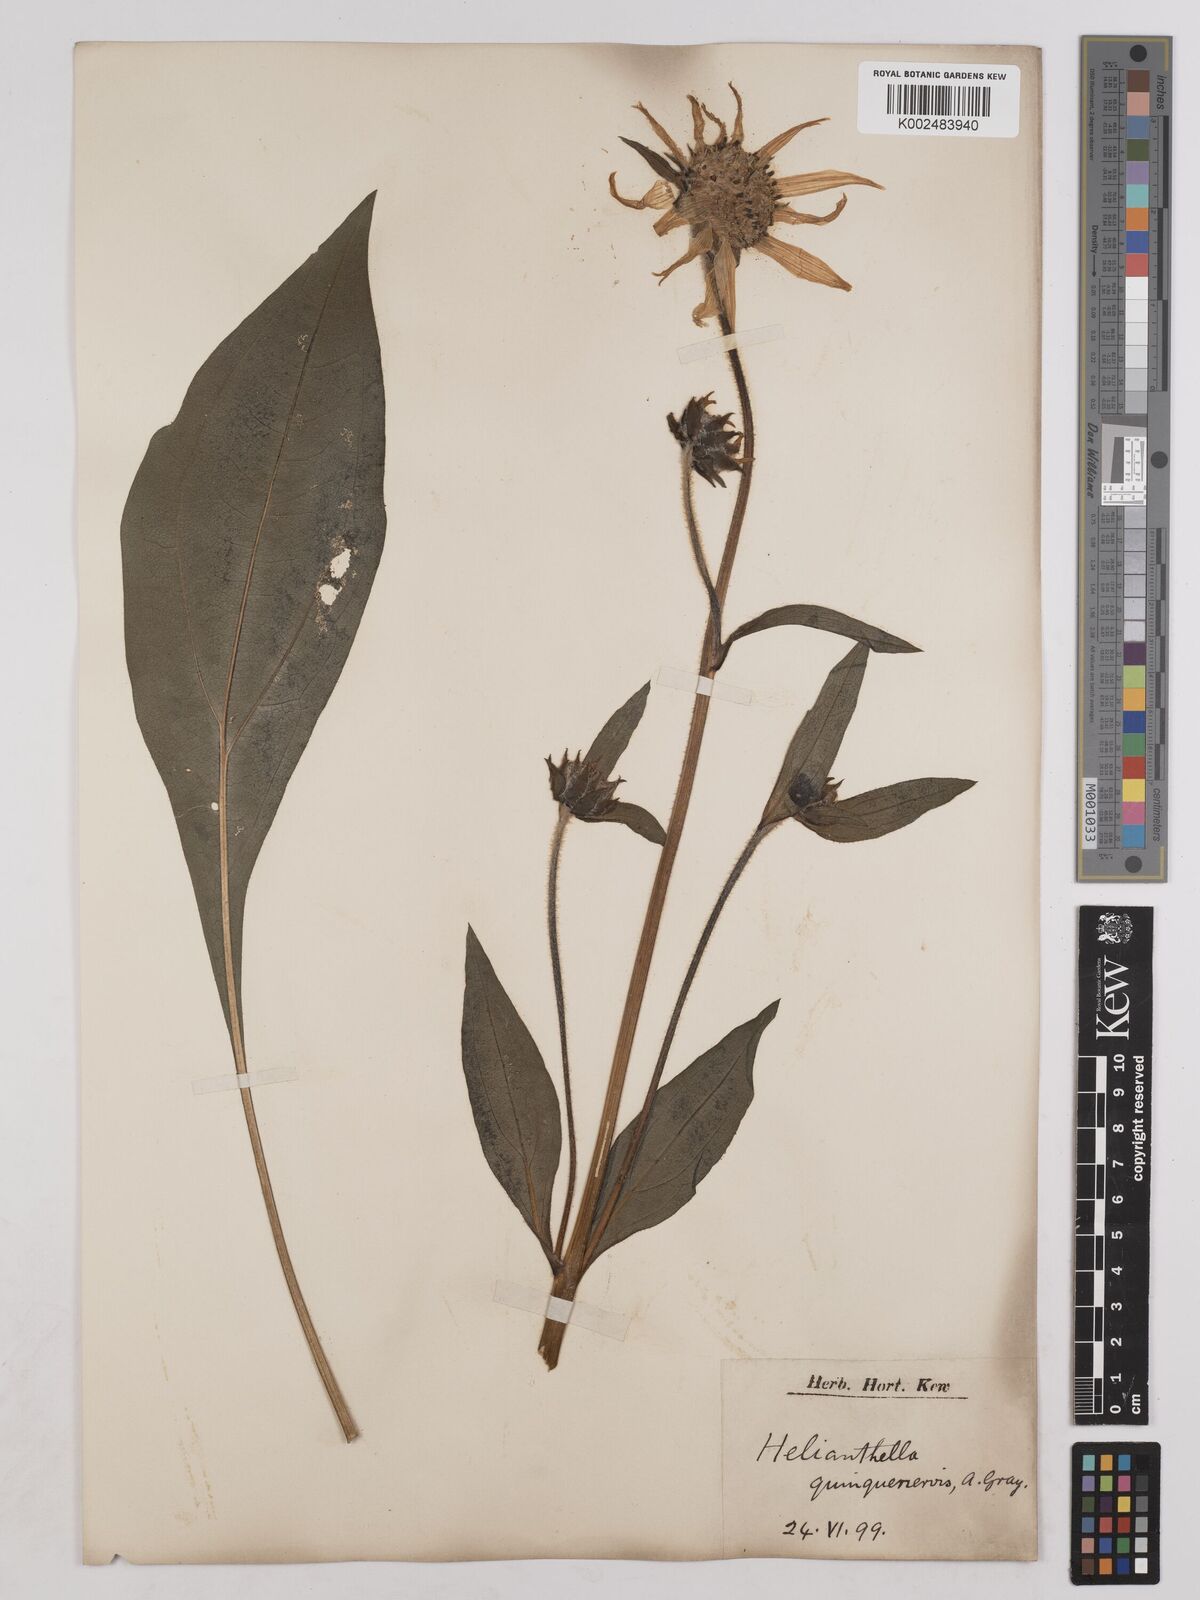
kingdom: Plantae
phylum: Tracheophyta
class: Magnoliopsida
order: Asterales
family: Asteraceae
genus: Helianthella
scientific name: Helianthella quinquenervis
